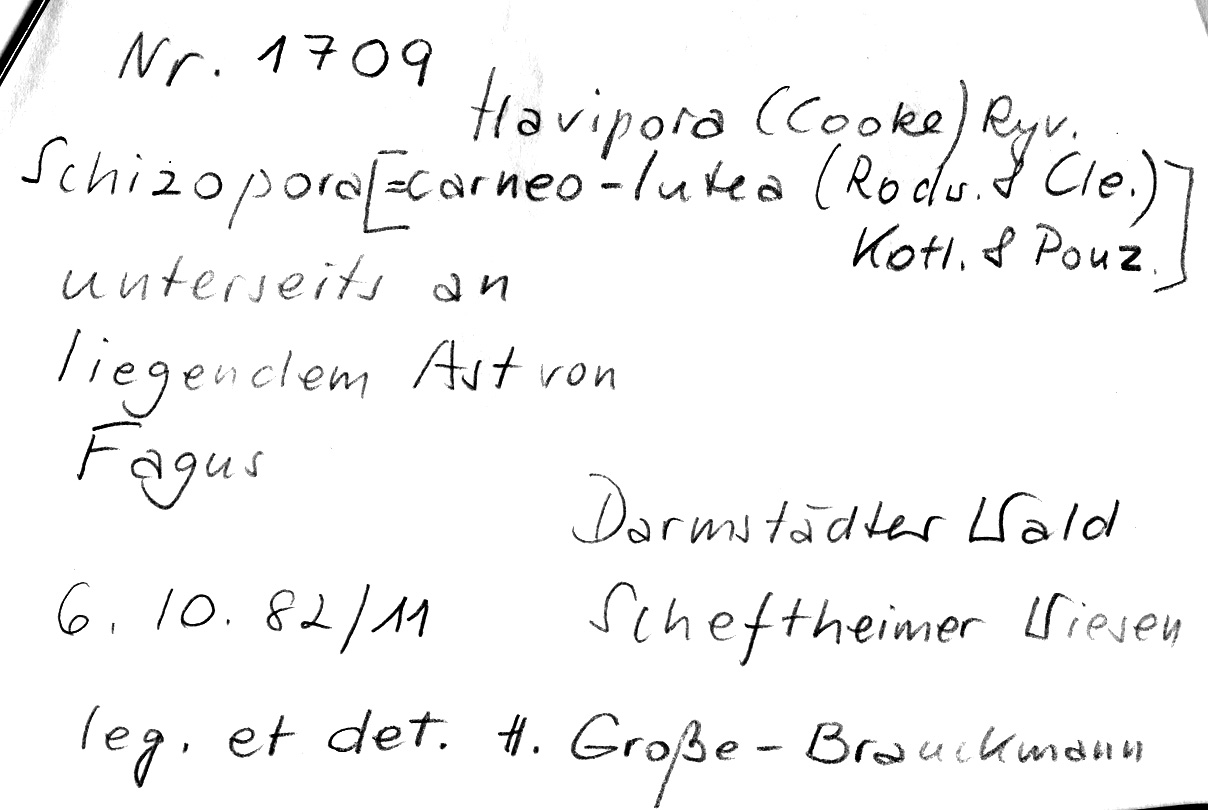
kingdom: Plantae
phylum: Tracheophyta
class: Magnoliopsida
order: Fagales
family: Fagaceae
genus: Fagus
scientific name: Fagus sylvatica
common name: Beech
